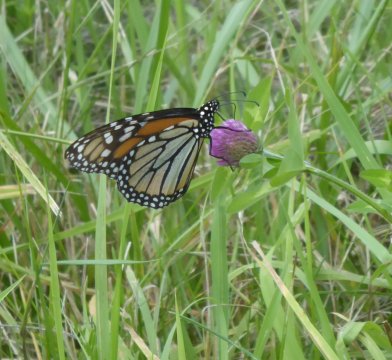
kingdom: Animalia
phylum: Arthropoda
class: Insecta
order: Lepidoptera
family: Nymphalidae
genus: Danaus
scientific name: Danaus plexippus
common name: Monarch
